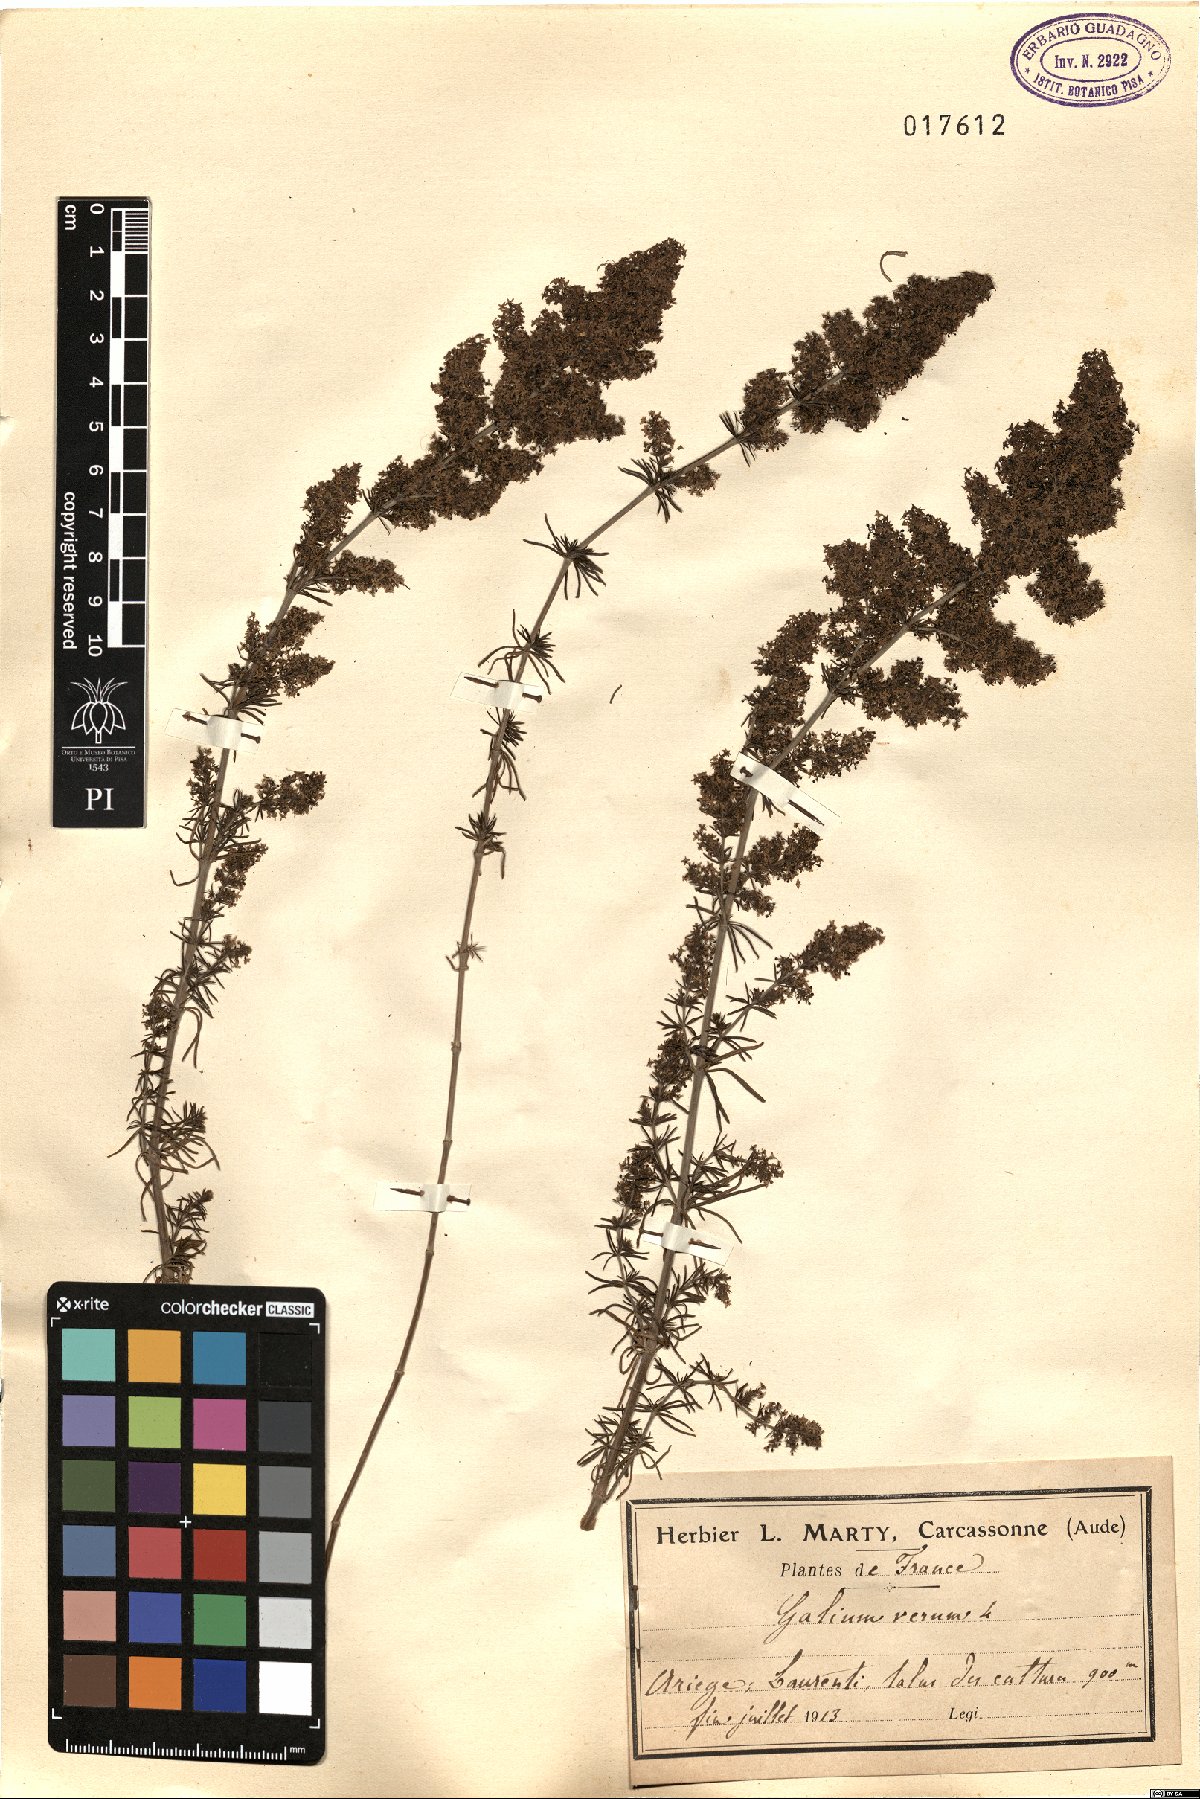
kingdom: Plantae
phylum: Tracheophyta
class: Magnoliopsida
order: Gentianales
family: Rubiaceae
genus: Galium
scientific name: Galium verum
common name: Lady's bedstraw
